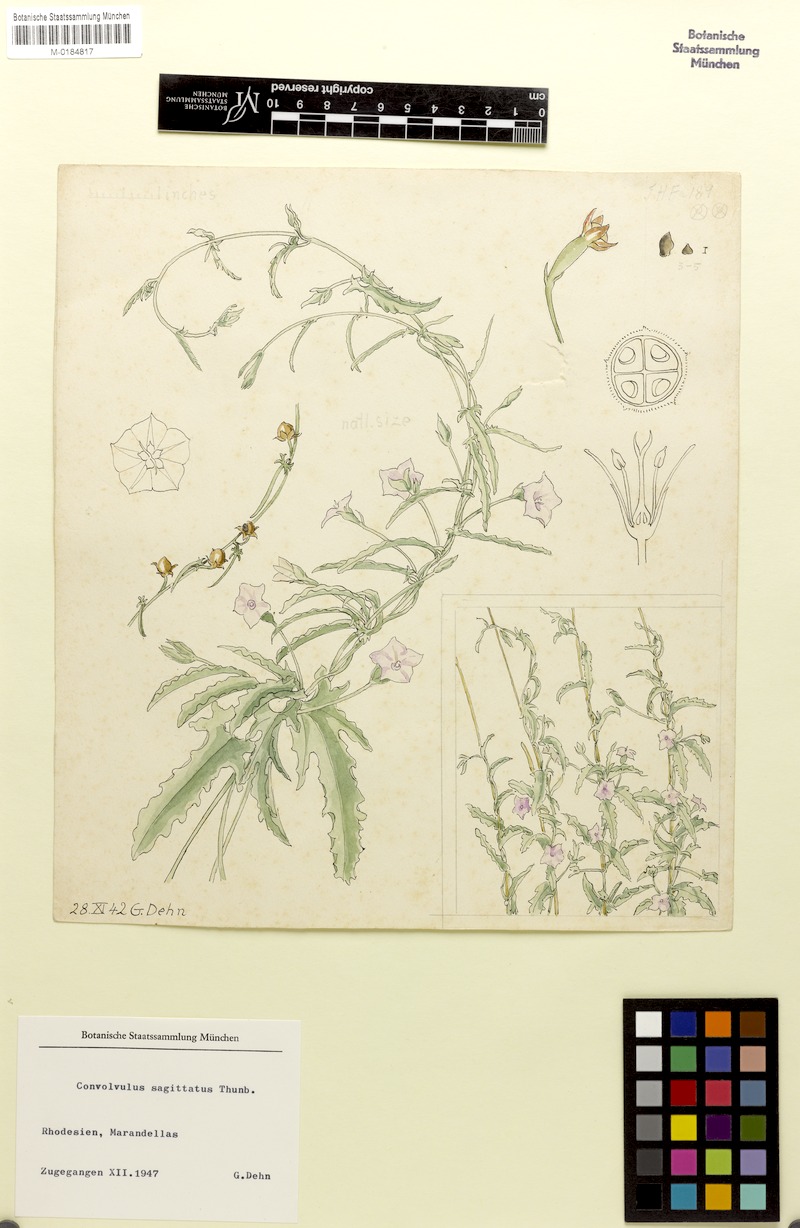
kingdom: Plantae
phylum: Tracheophyta
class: Magnoliopsida
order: Solanales
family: Convolvulaceae
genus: Convolvulus
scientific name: Convolvulus sagittatus
